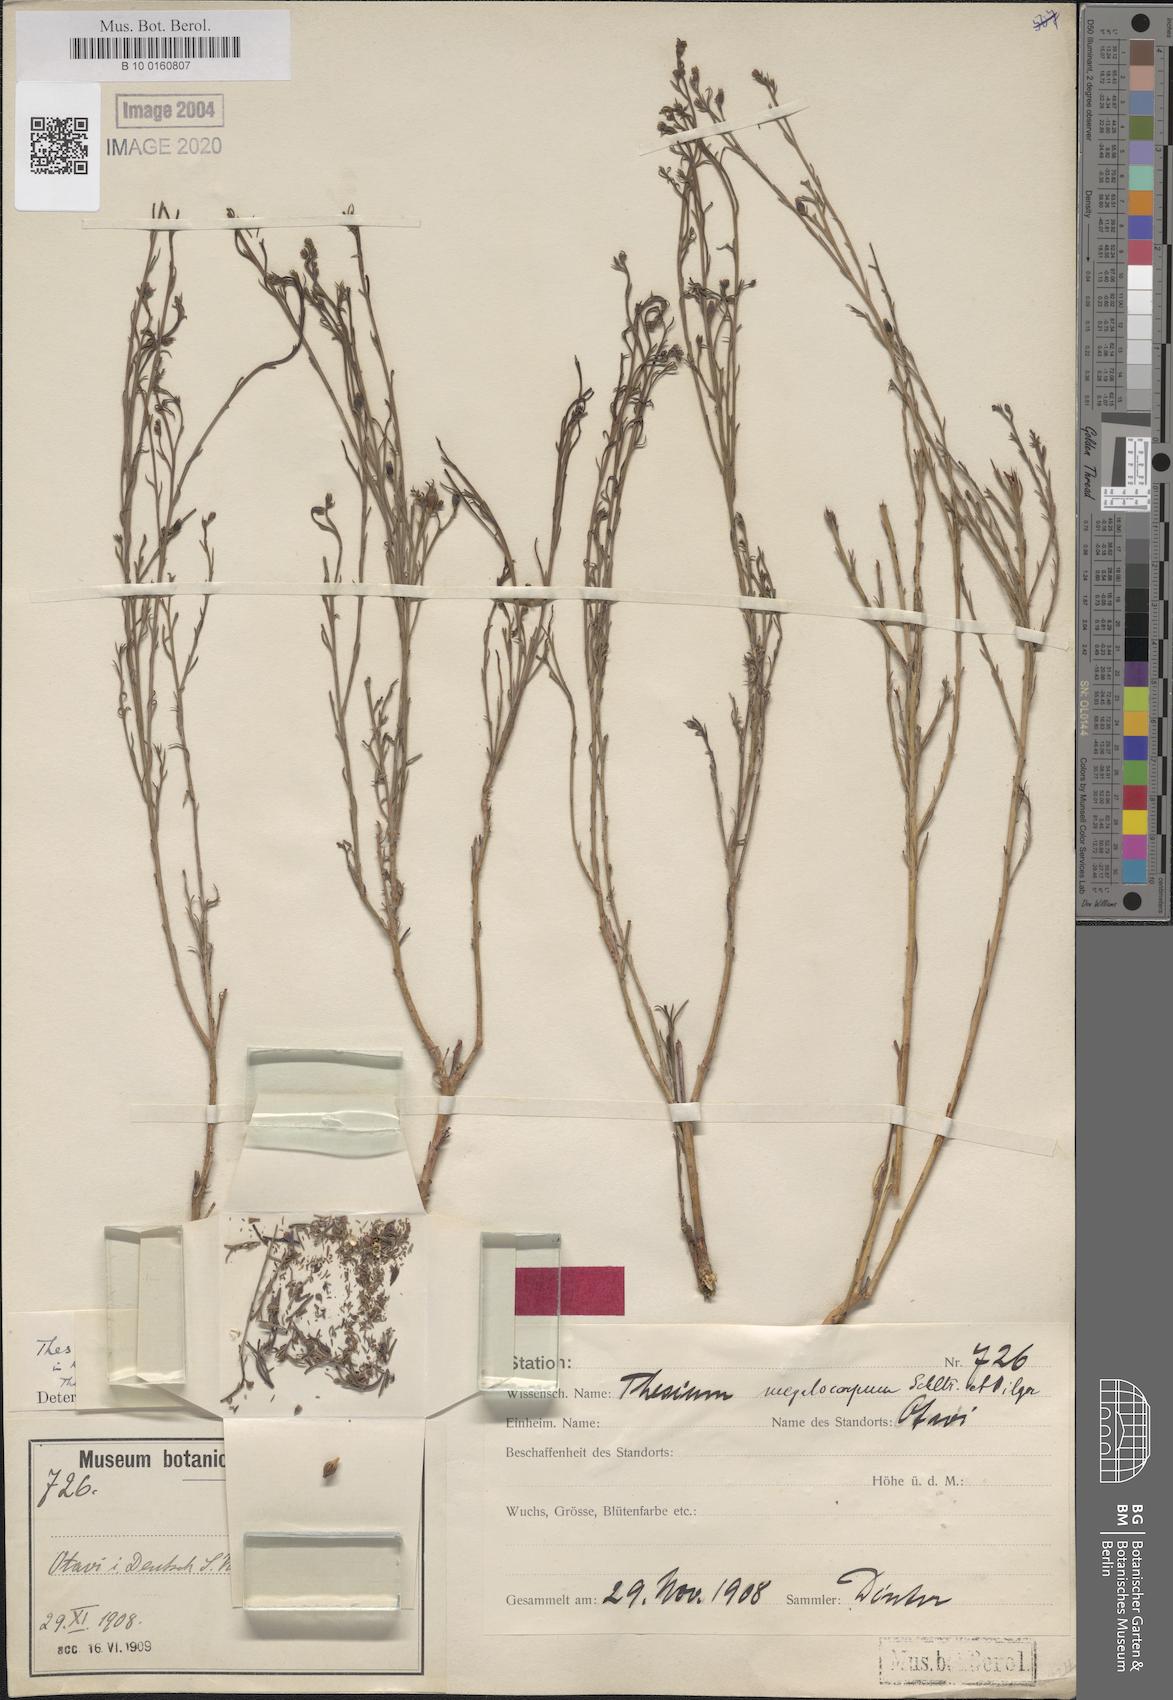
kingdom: Plantae
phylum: Tracheophyta
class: Magnoliopsida
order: Santalales
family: Thesiaceae
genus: Thesium
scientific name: Thesium megalocarpum
